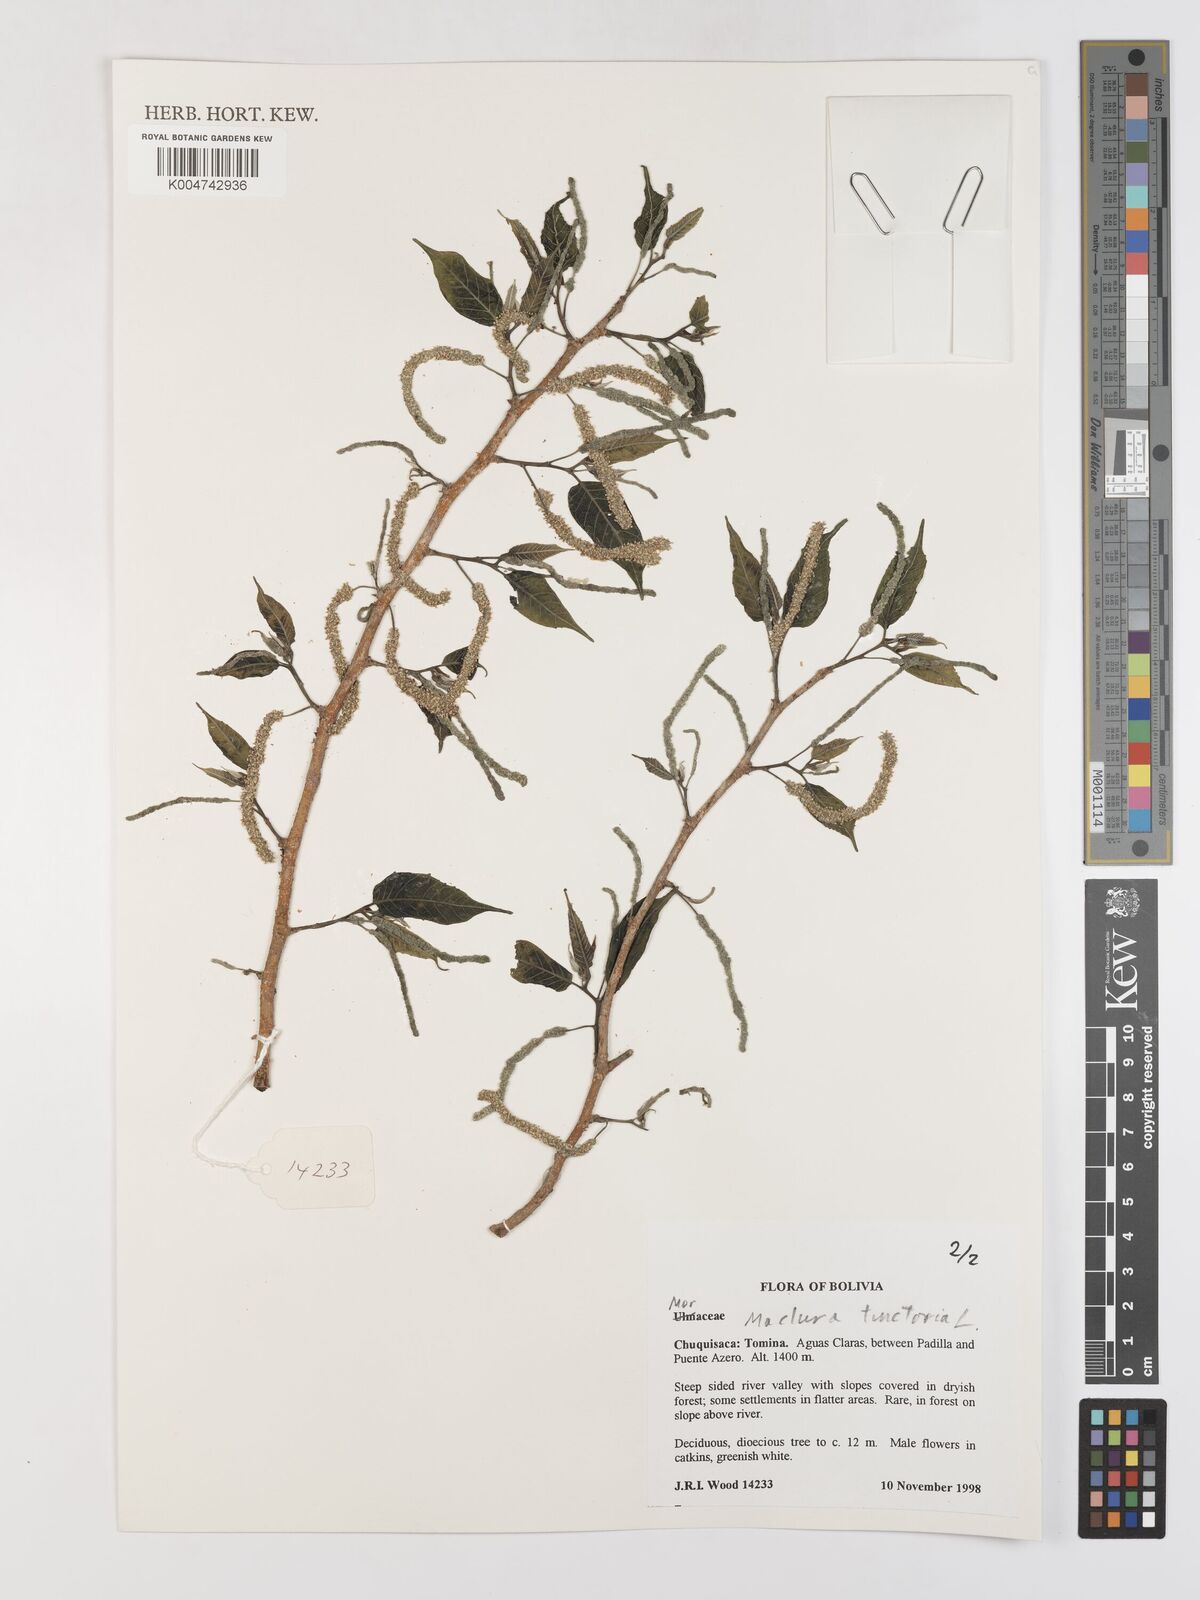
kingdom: Plantae
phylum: Tracheophyta
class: Magnoliopsida
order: Rosales
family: Moraceae
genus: Maclura
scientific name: Maclura tinctoria
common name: Old fustic
